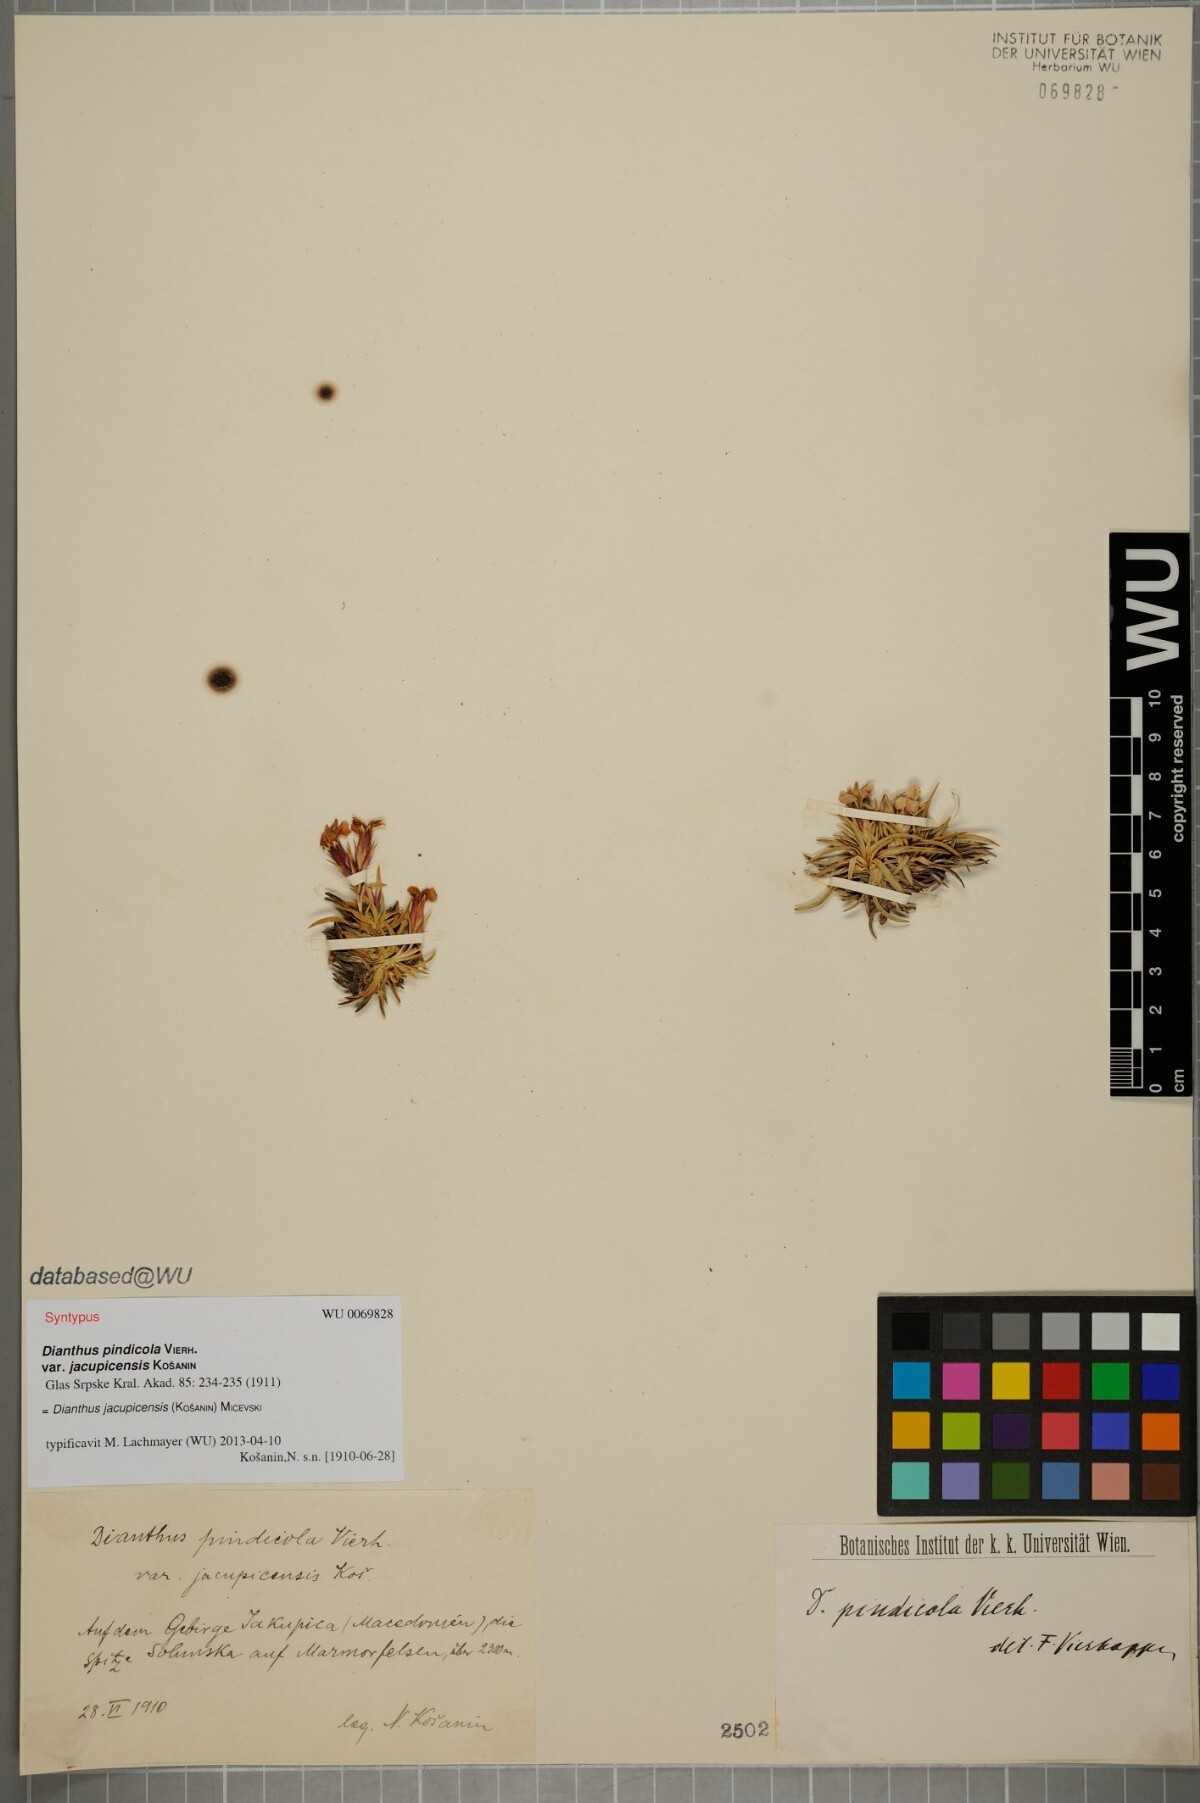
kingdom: Plantae
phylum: Tracheophyta
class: Magnoliopsida
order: Caryophyllales
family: Caryophyllaceae
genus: Dianthus
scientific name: Dianthus haematocalyx
